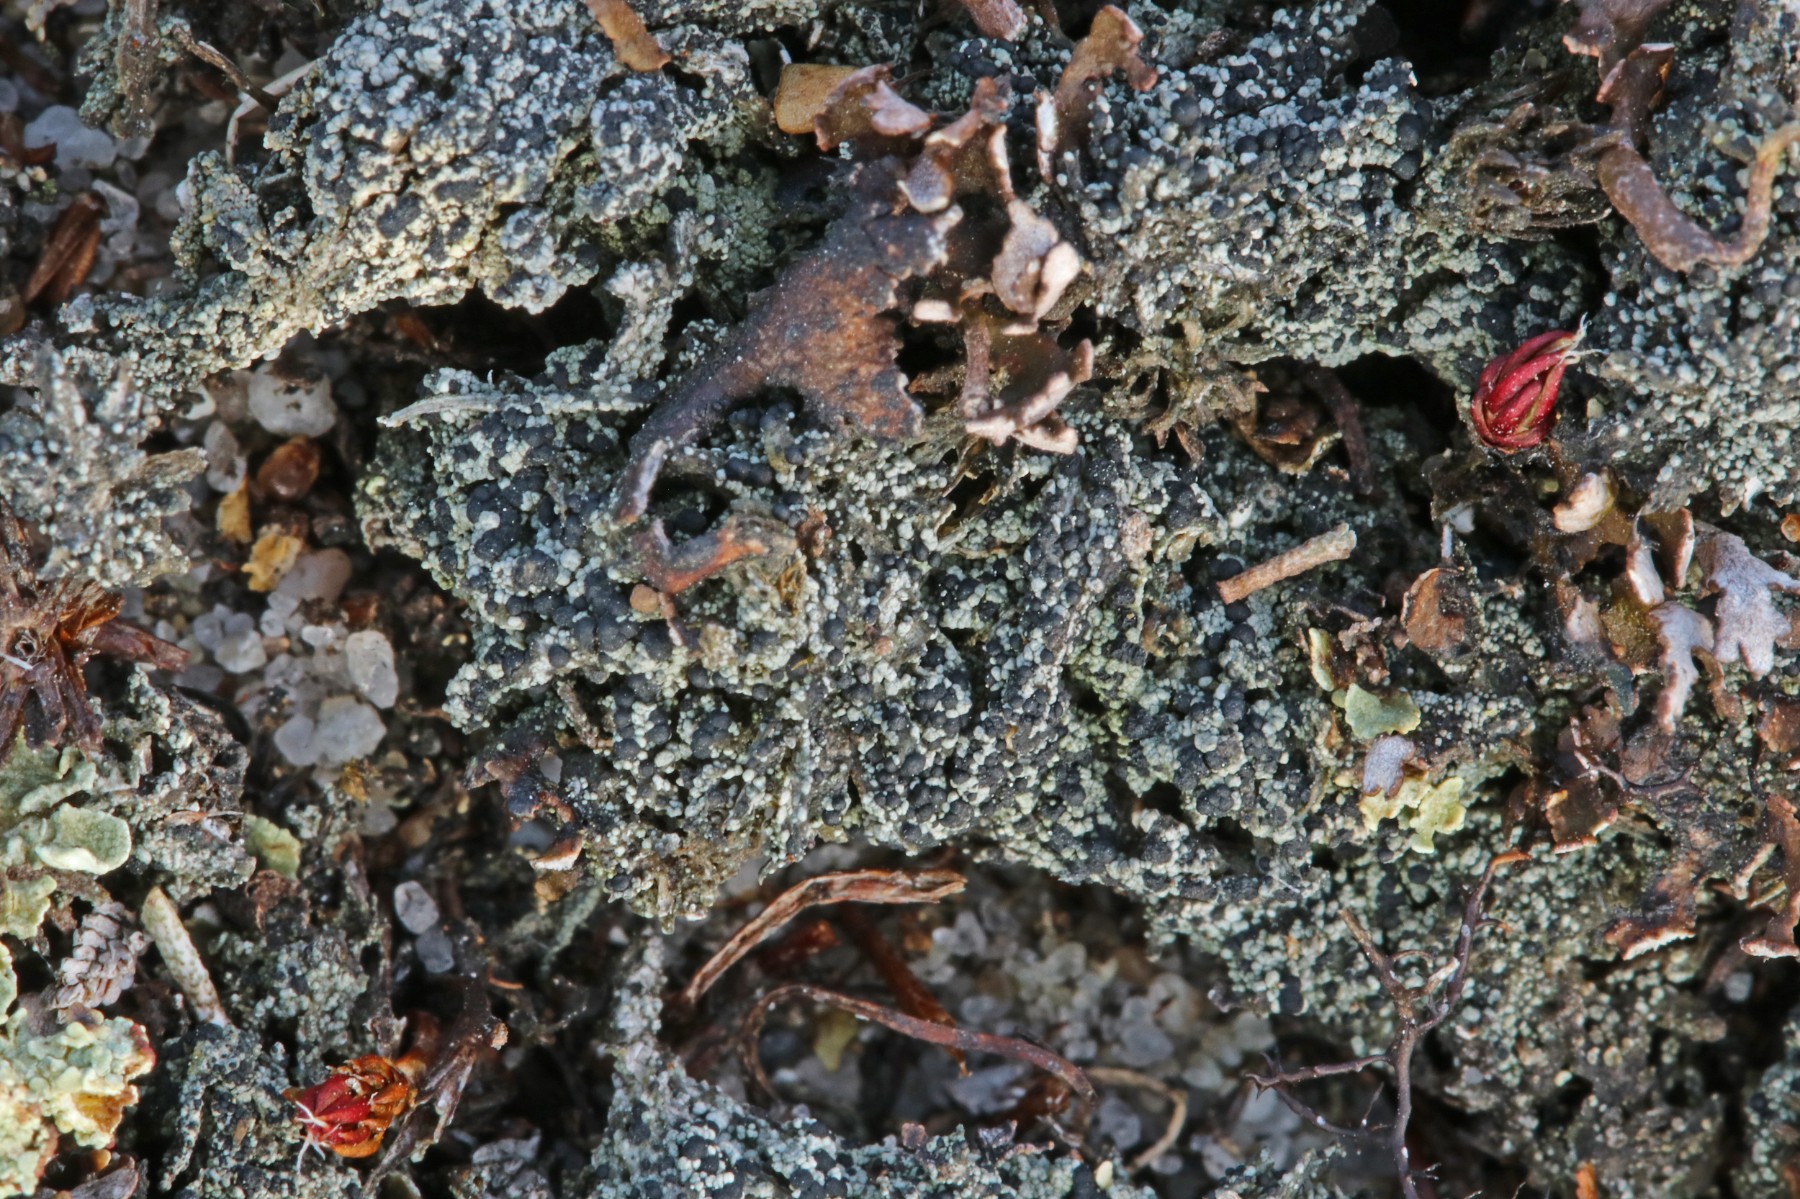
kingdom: Fungi
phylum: Ascomycota
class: Lecanoromycetes
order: Lecanorales
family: Byssolomataceae
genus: Micarea
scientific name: Micarea lignaria
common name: tørve-knaplav
